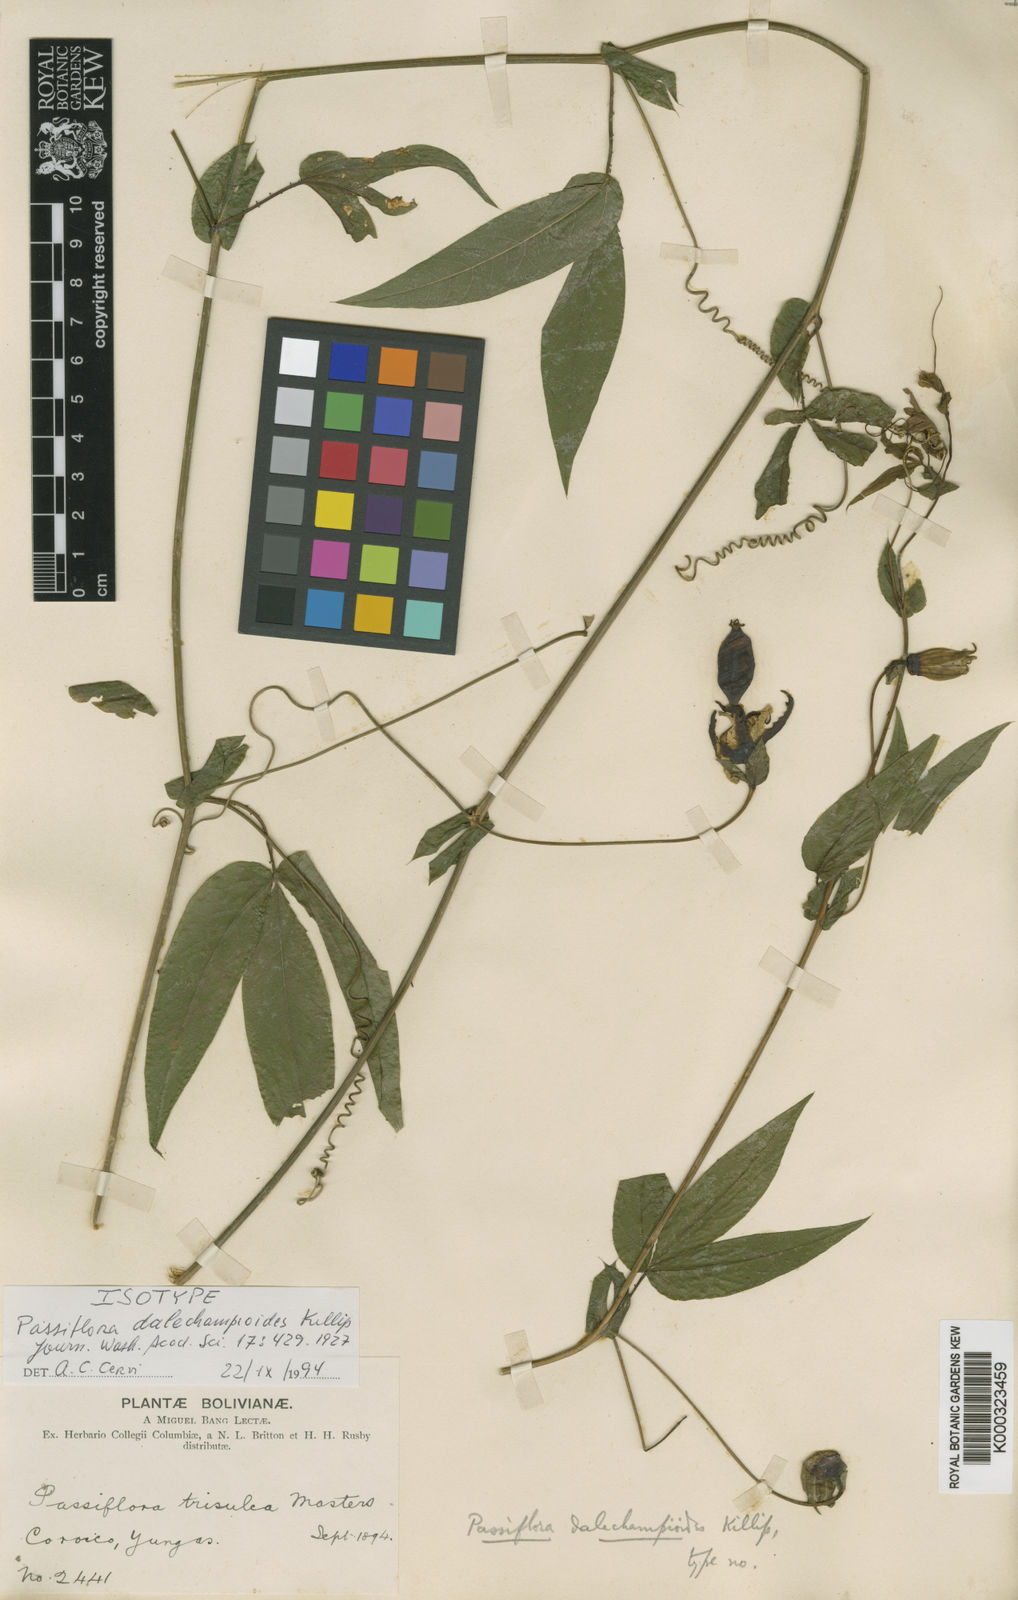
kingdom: Plantae
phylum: Tracheophyta
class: Magnoliopsida
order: Malpighiales
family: Passifloraceae
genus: Passiflora
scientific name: Passiflora dalechampioides
